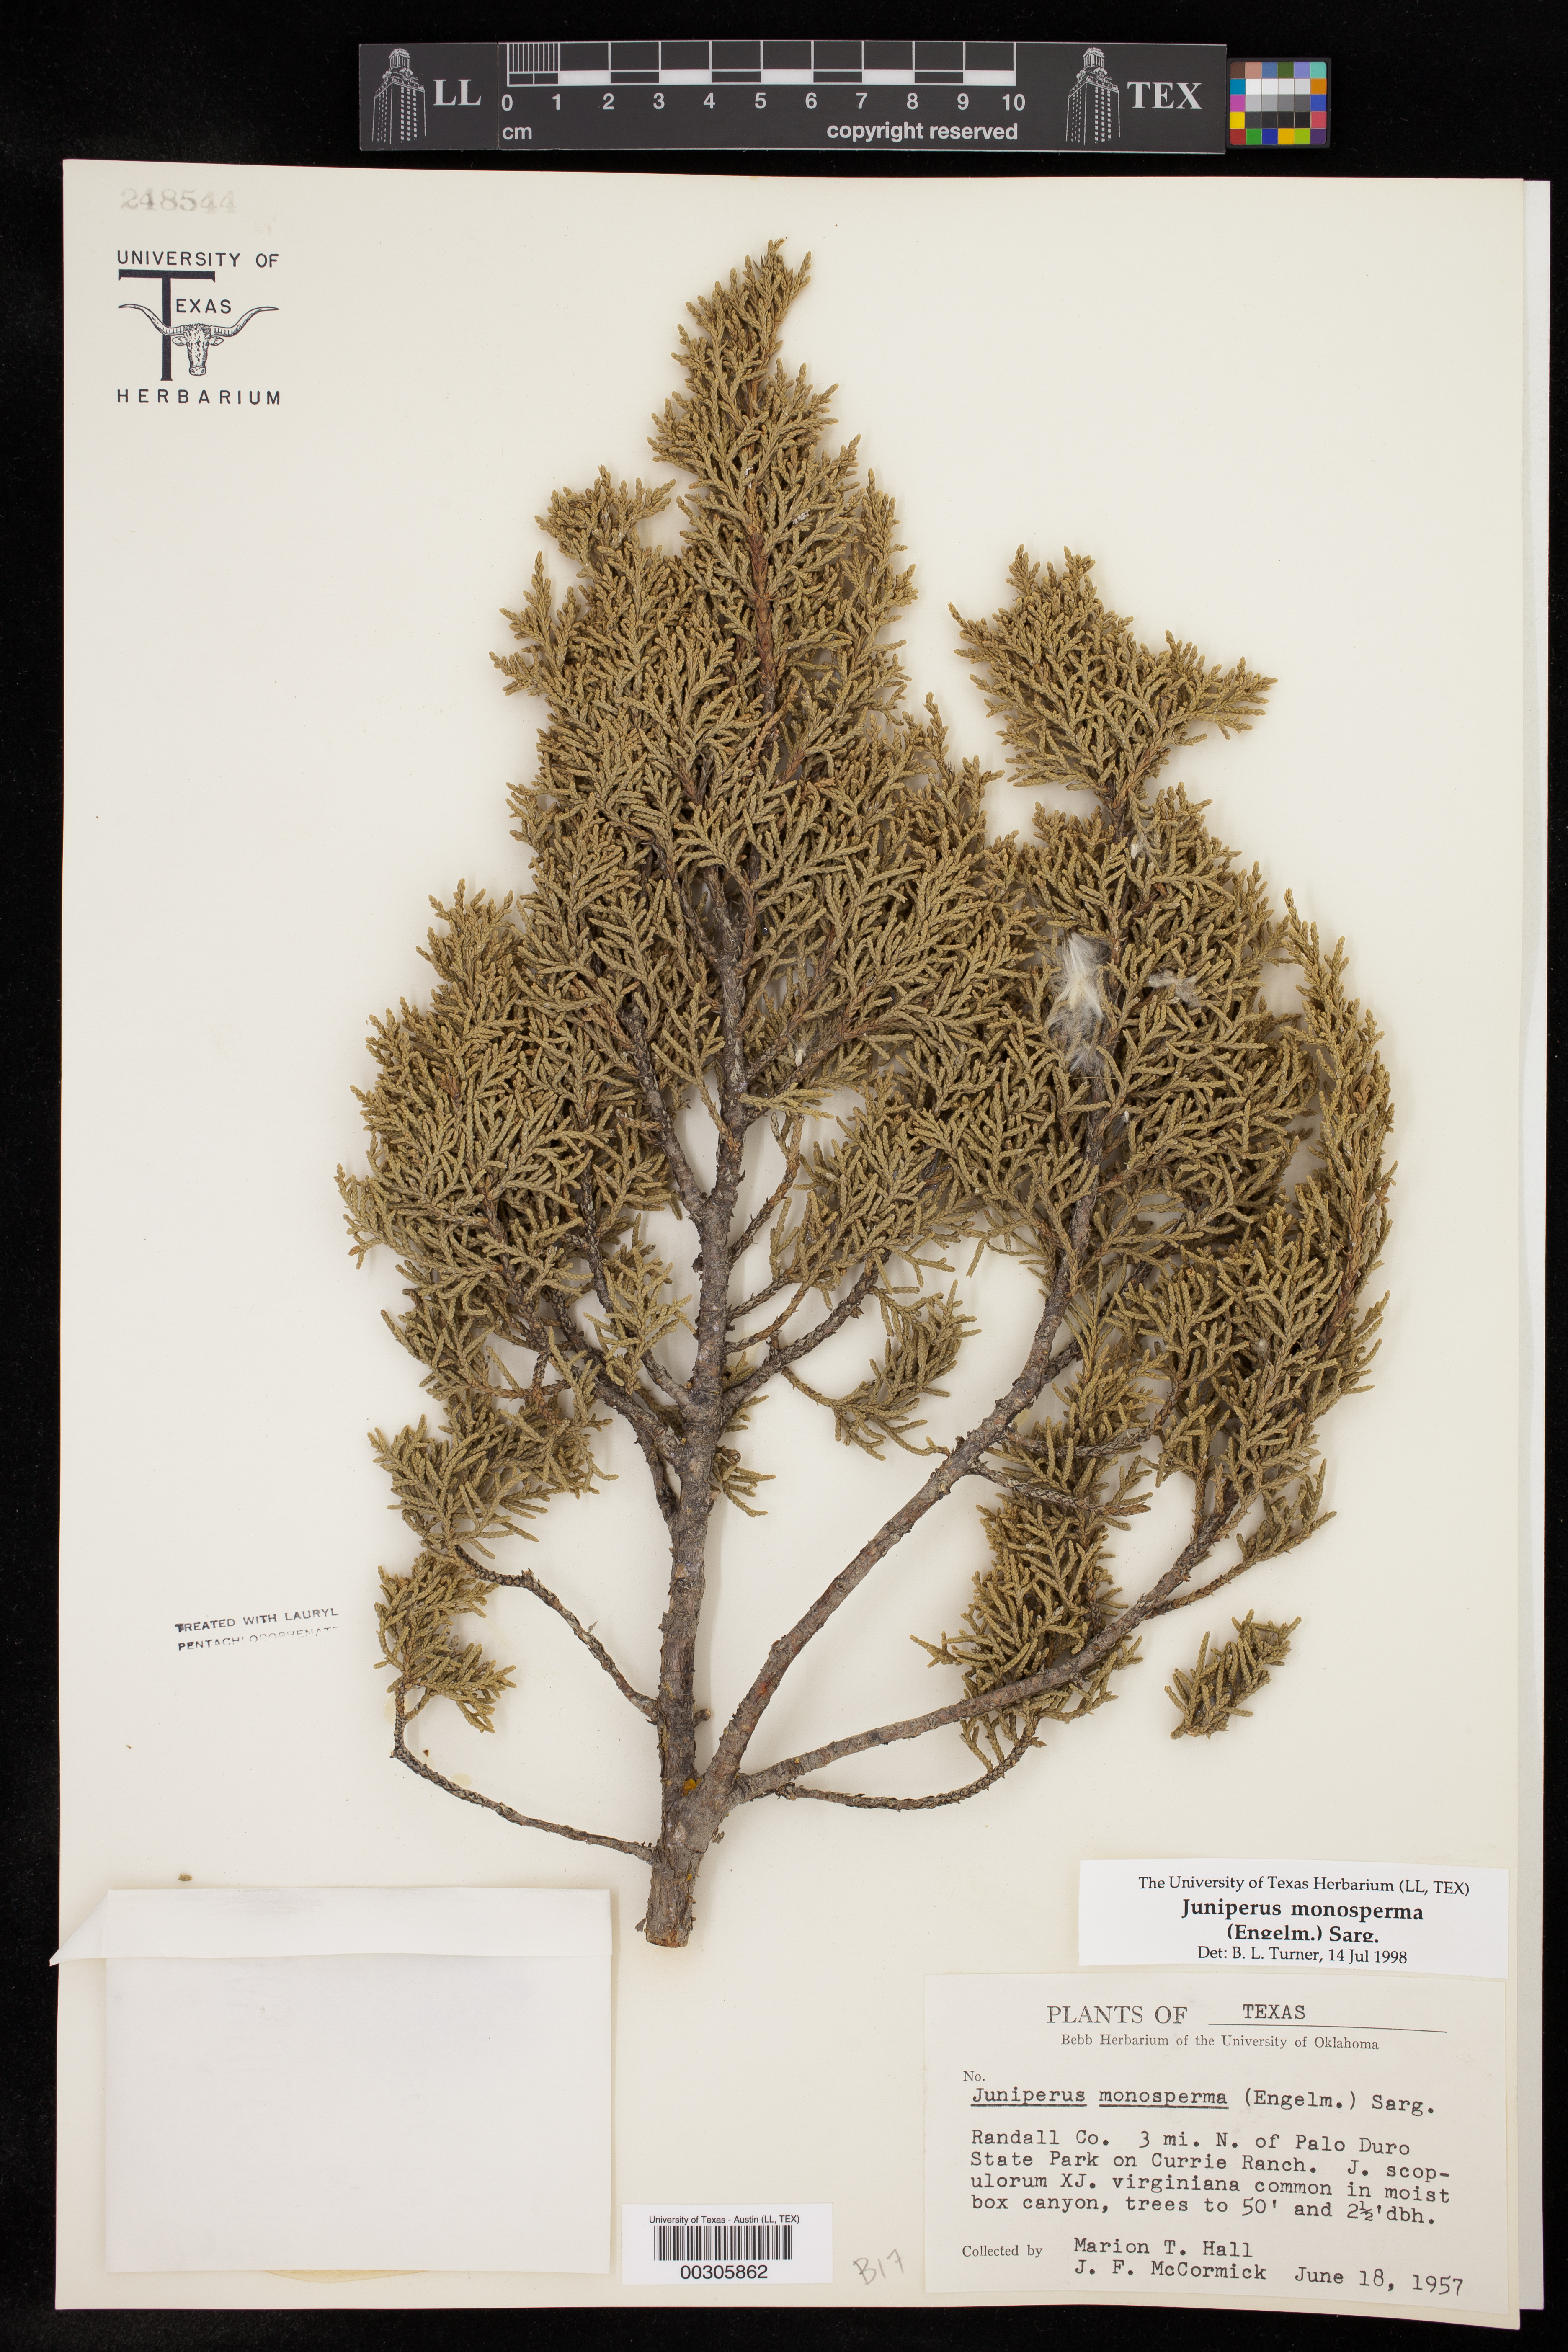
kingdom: Plantae
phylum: Tracheophyta
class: Pinopsida
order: Pinales
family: Cupressaceae
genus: Juniperus
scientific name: Juniperus monosperma
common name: One-seed juniper
